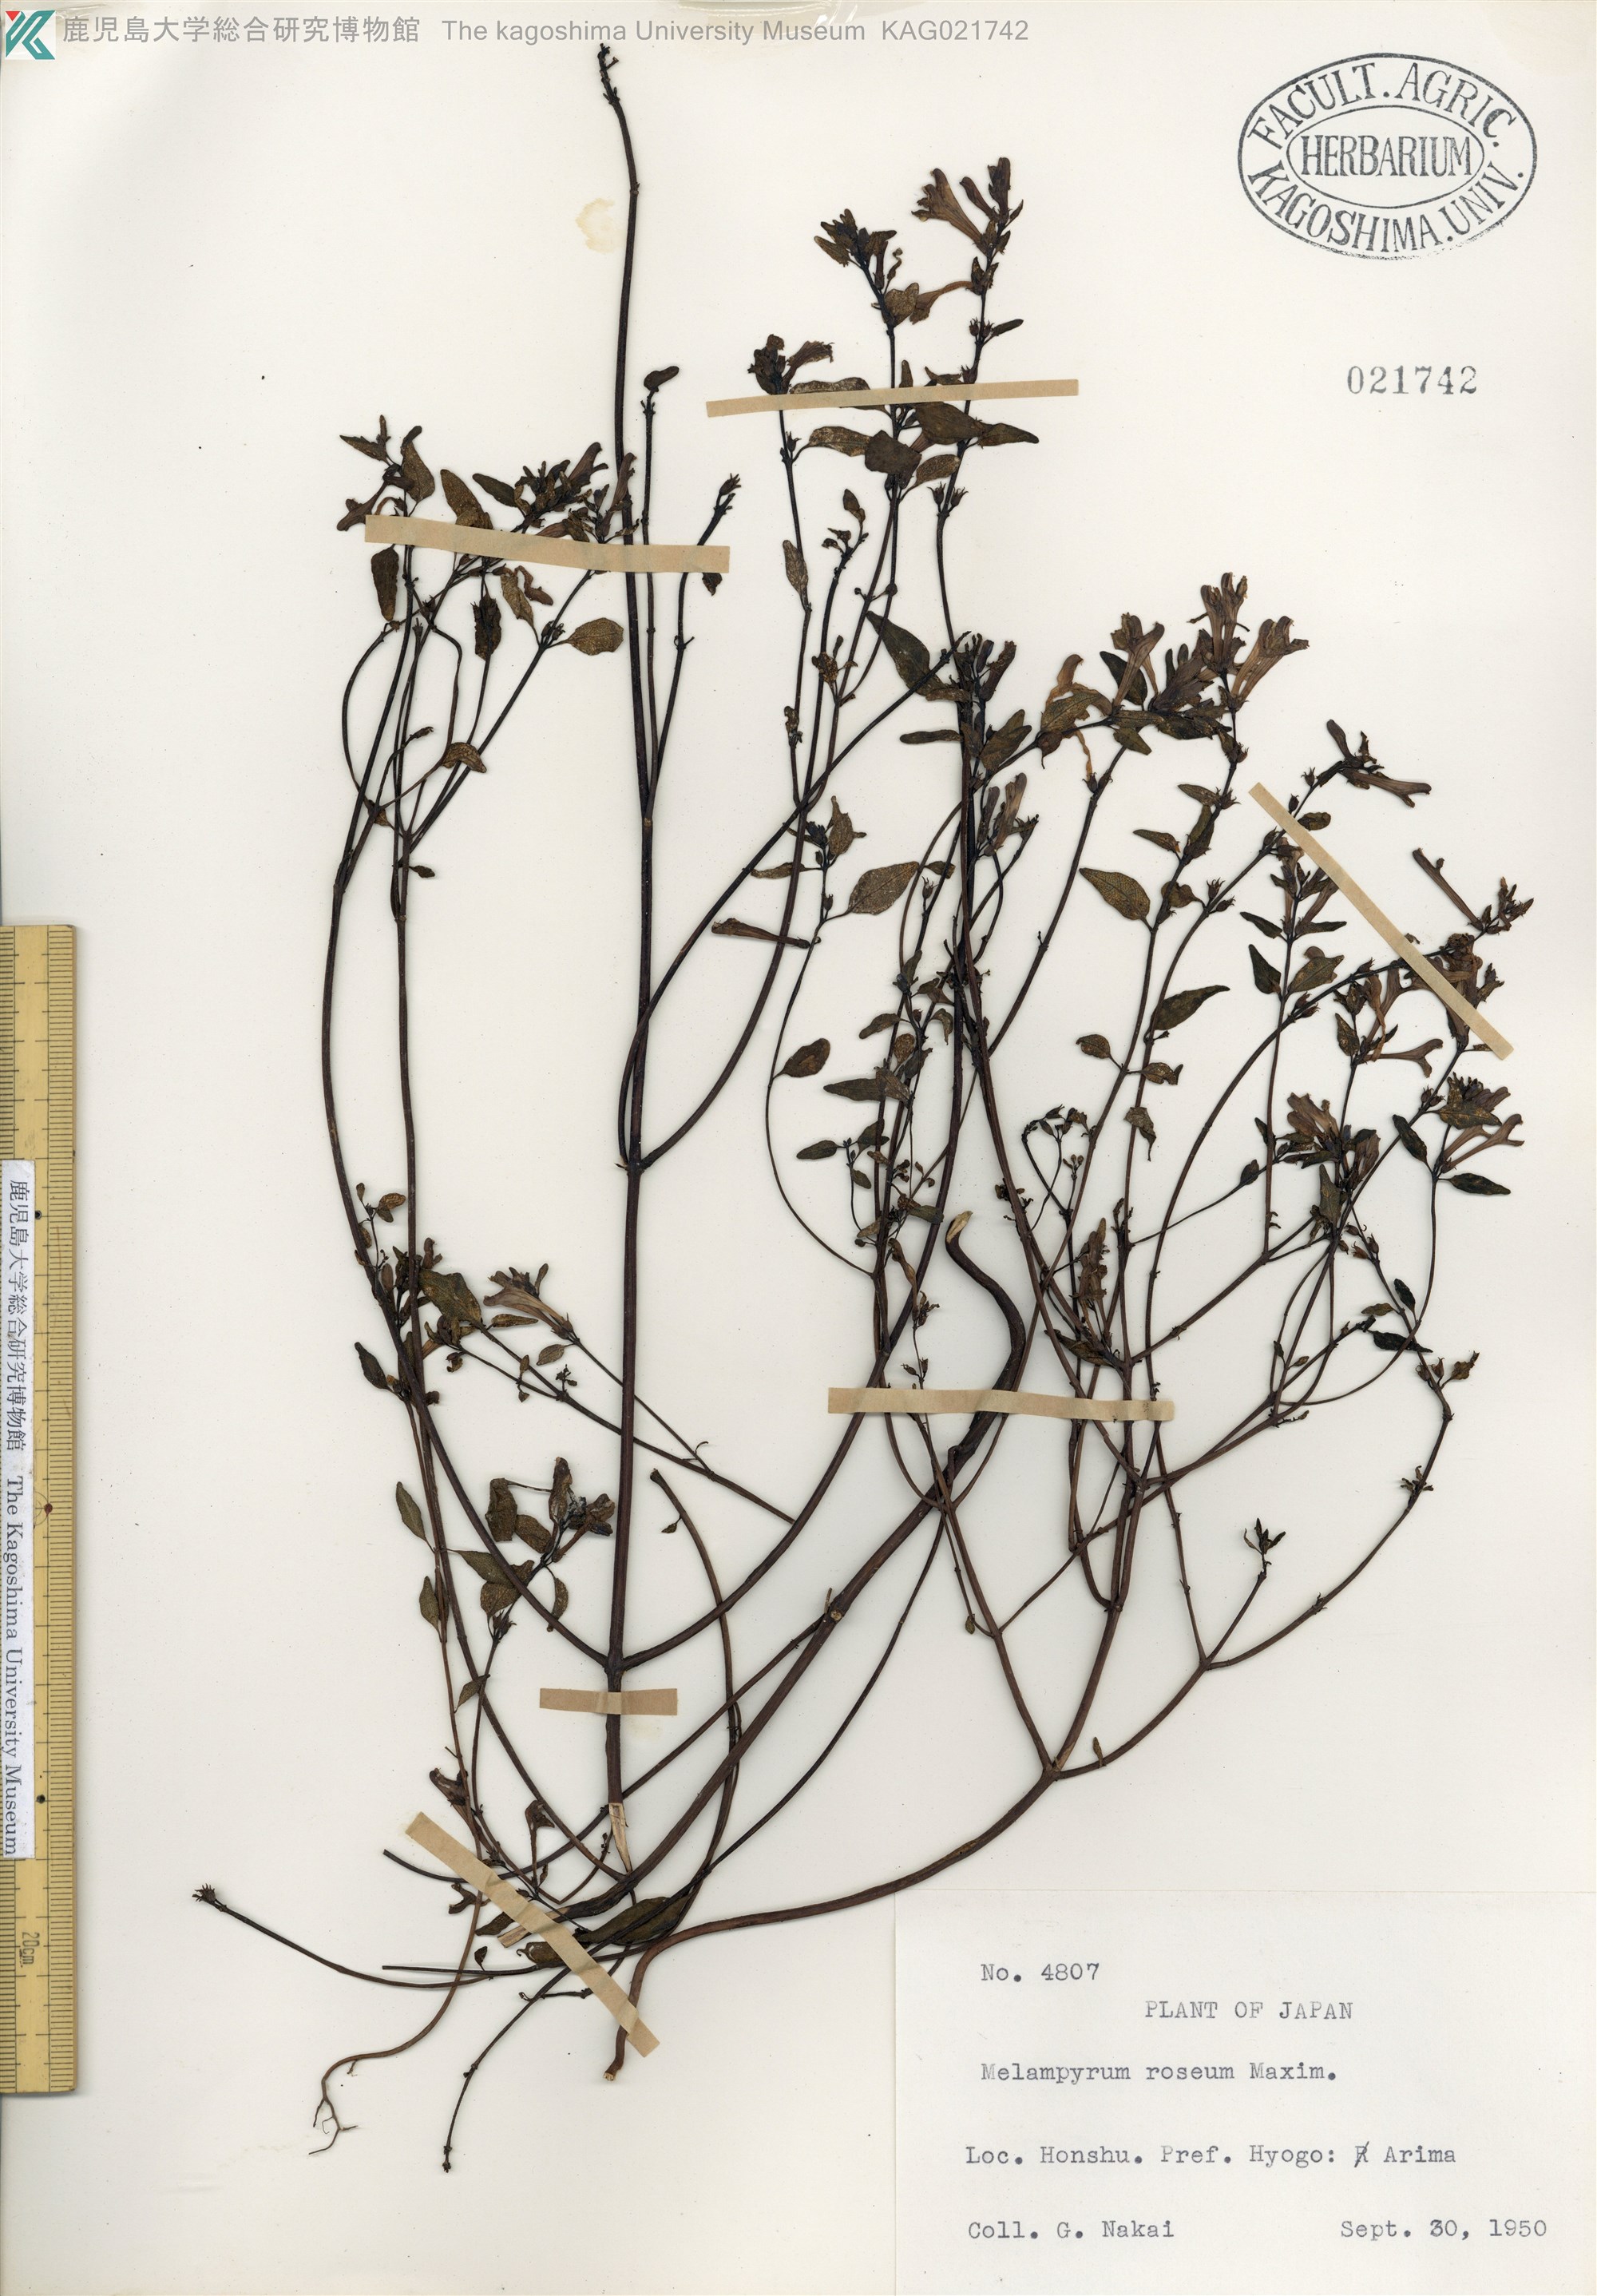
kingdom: Plantae
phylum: Tracheophyta
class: Magnoliopsida
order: Lamiales
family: Orobanchaceae
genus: Melampyrum
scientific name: Melampyrum laxum
